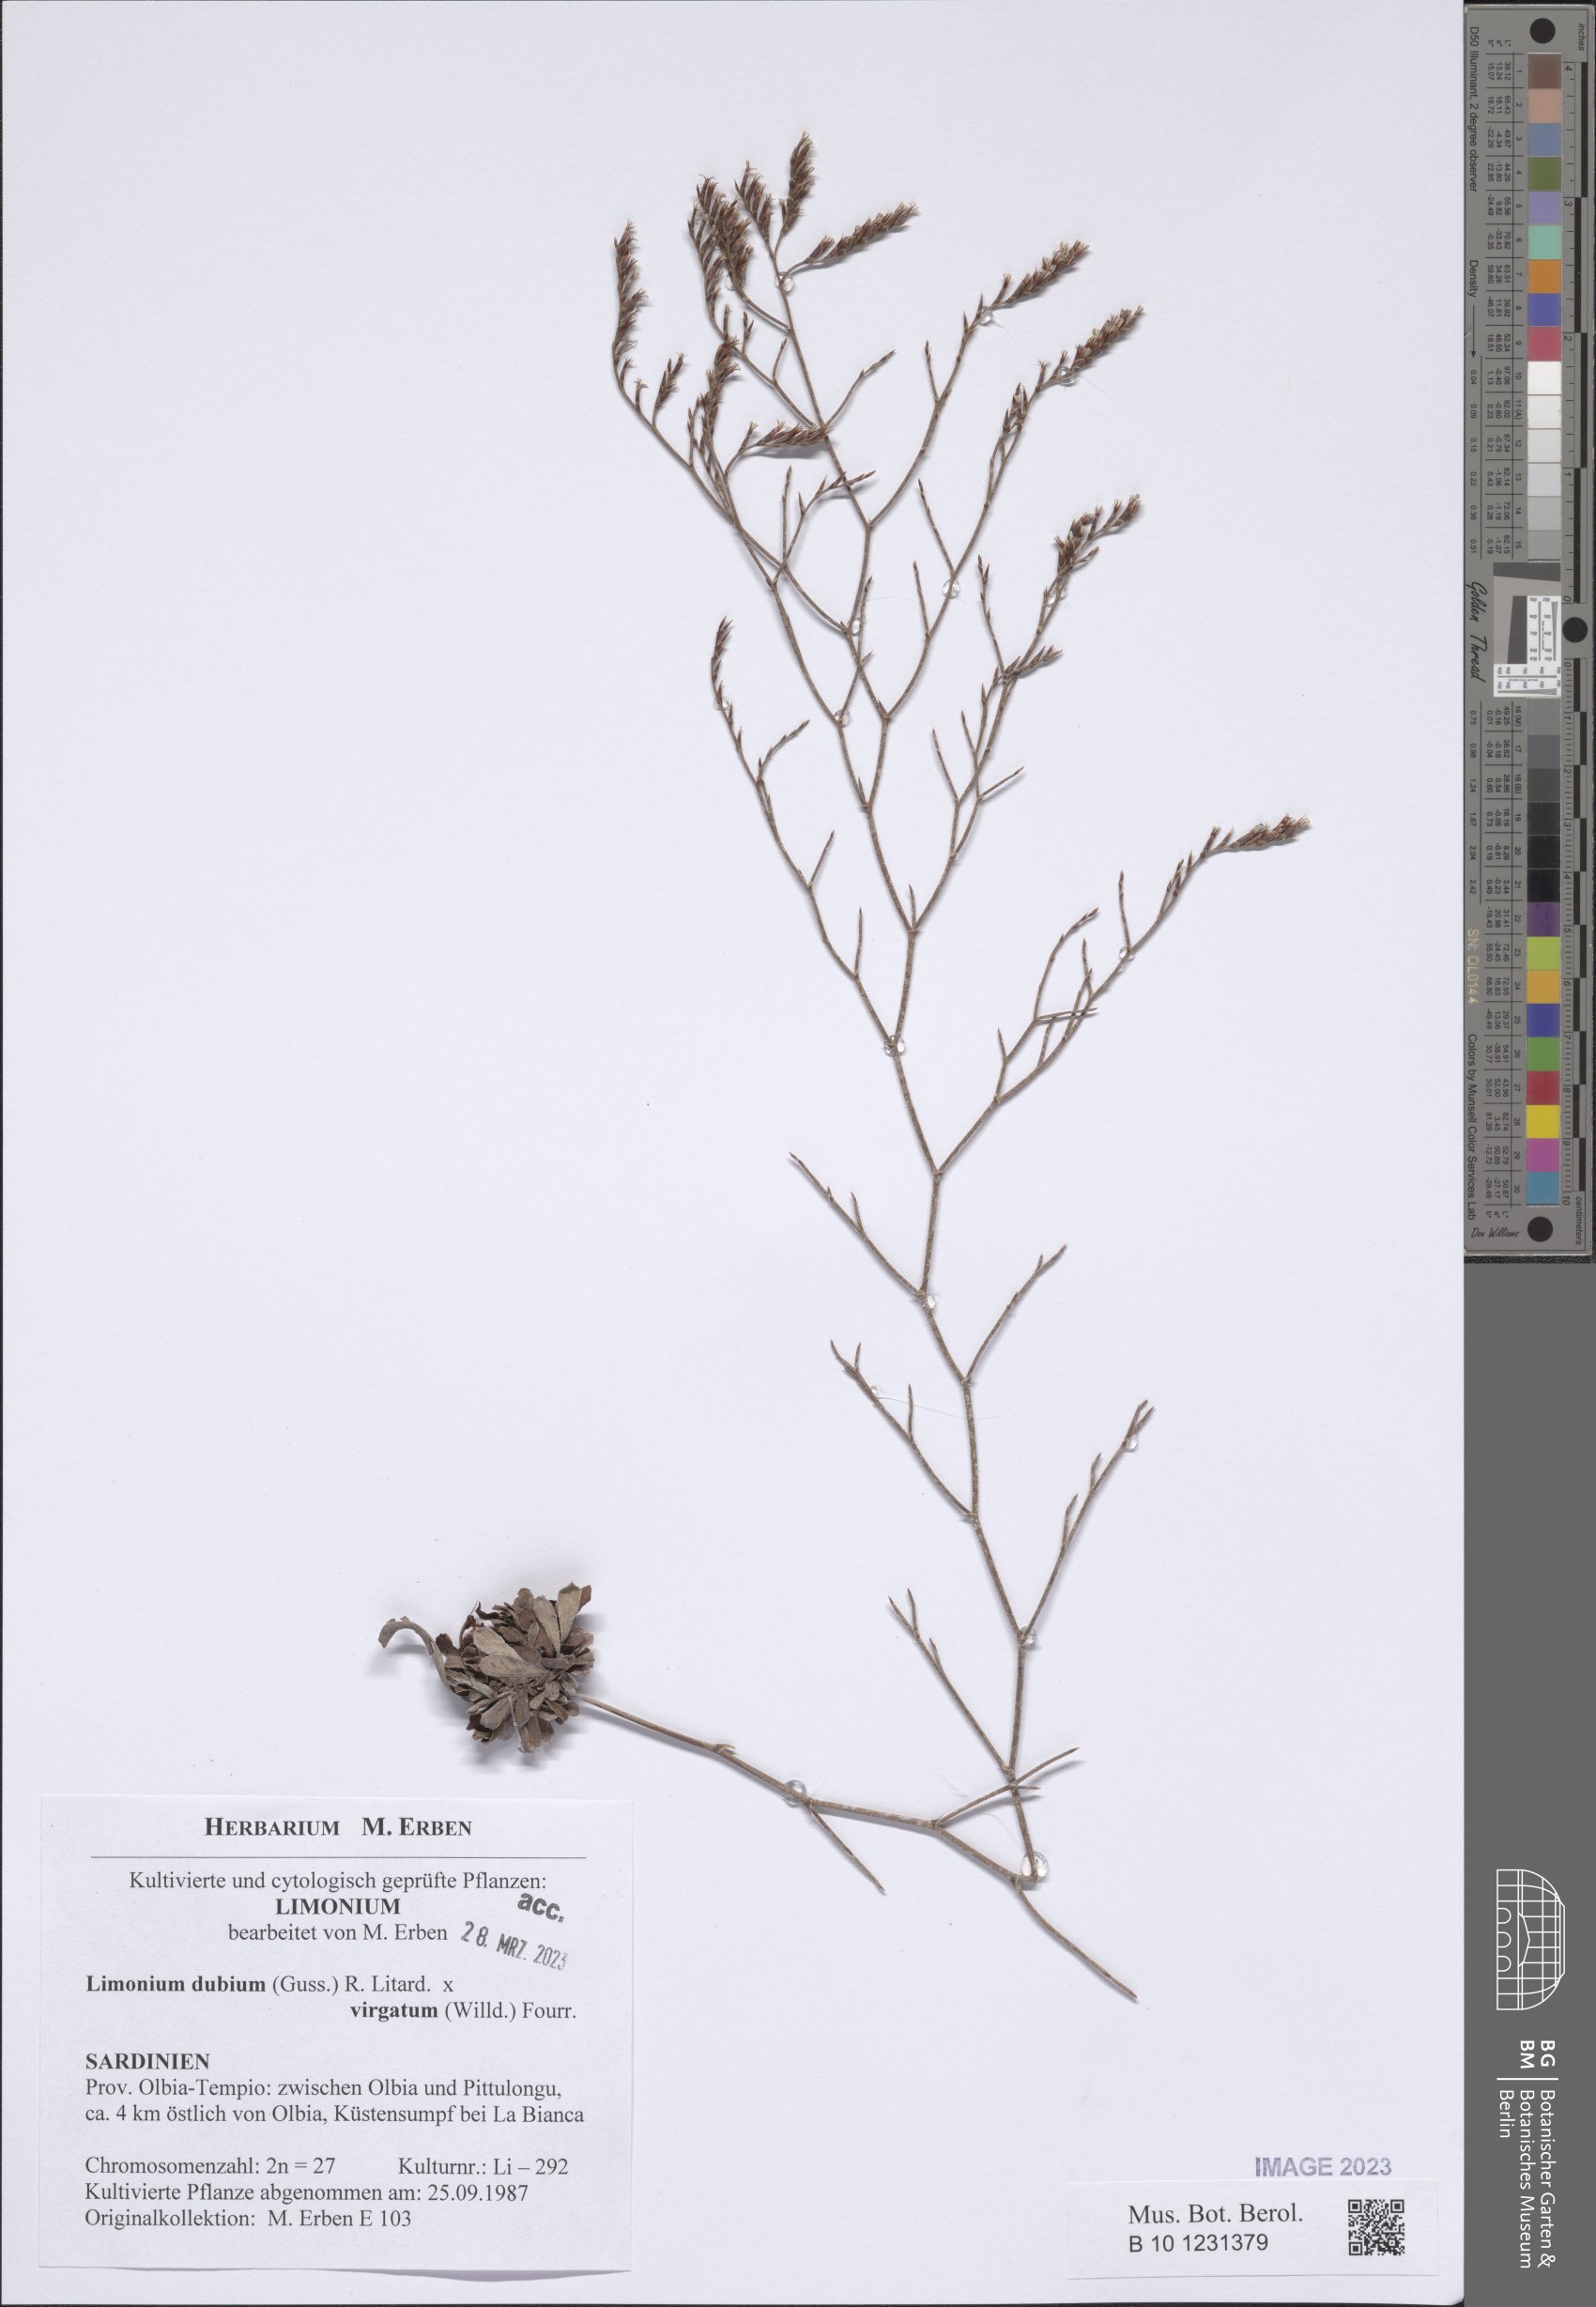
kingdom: Plantae
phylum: Tracheophyta
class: Magnoliopsida
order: Caryophyllales
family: Plumbaginaceae
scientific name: Plumbaginaceae
